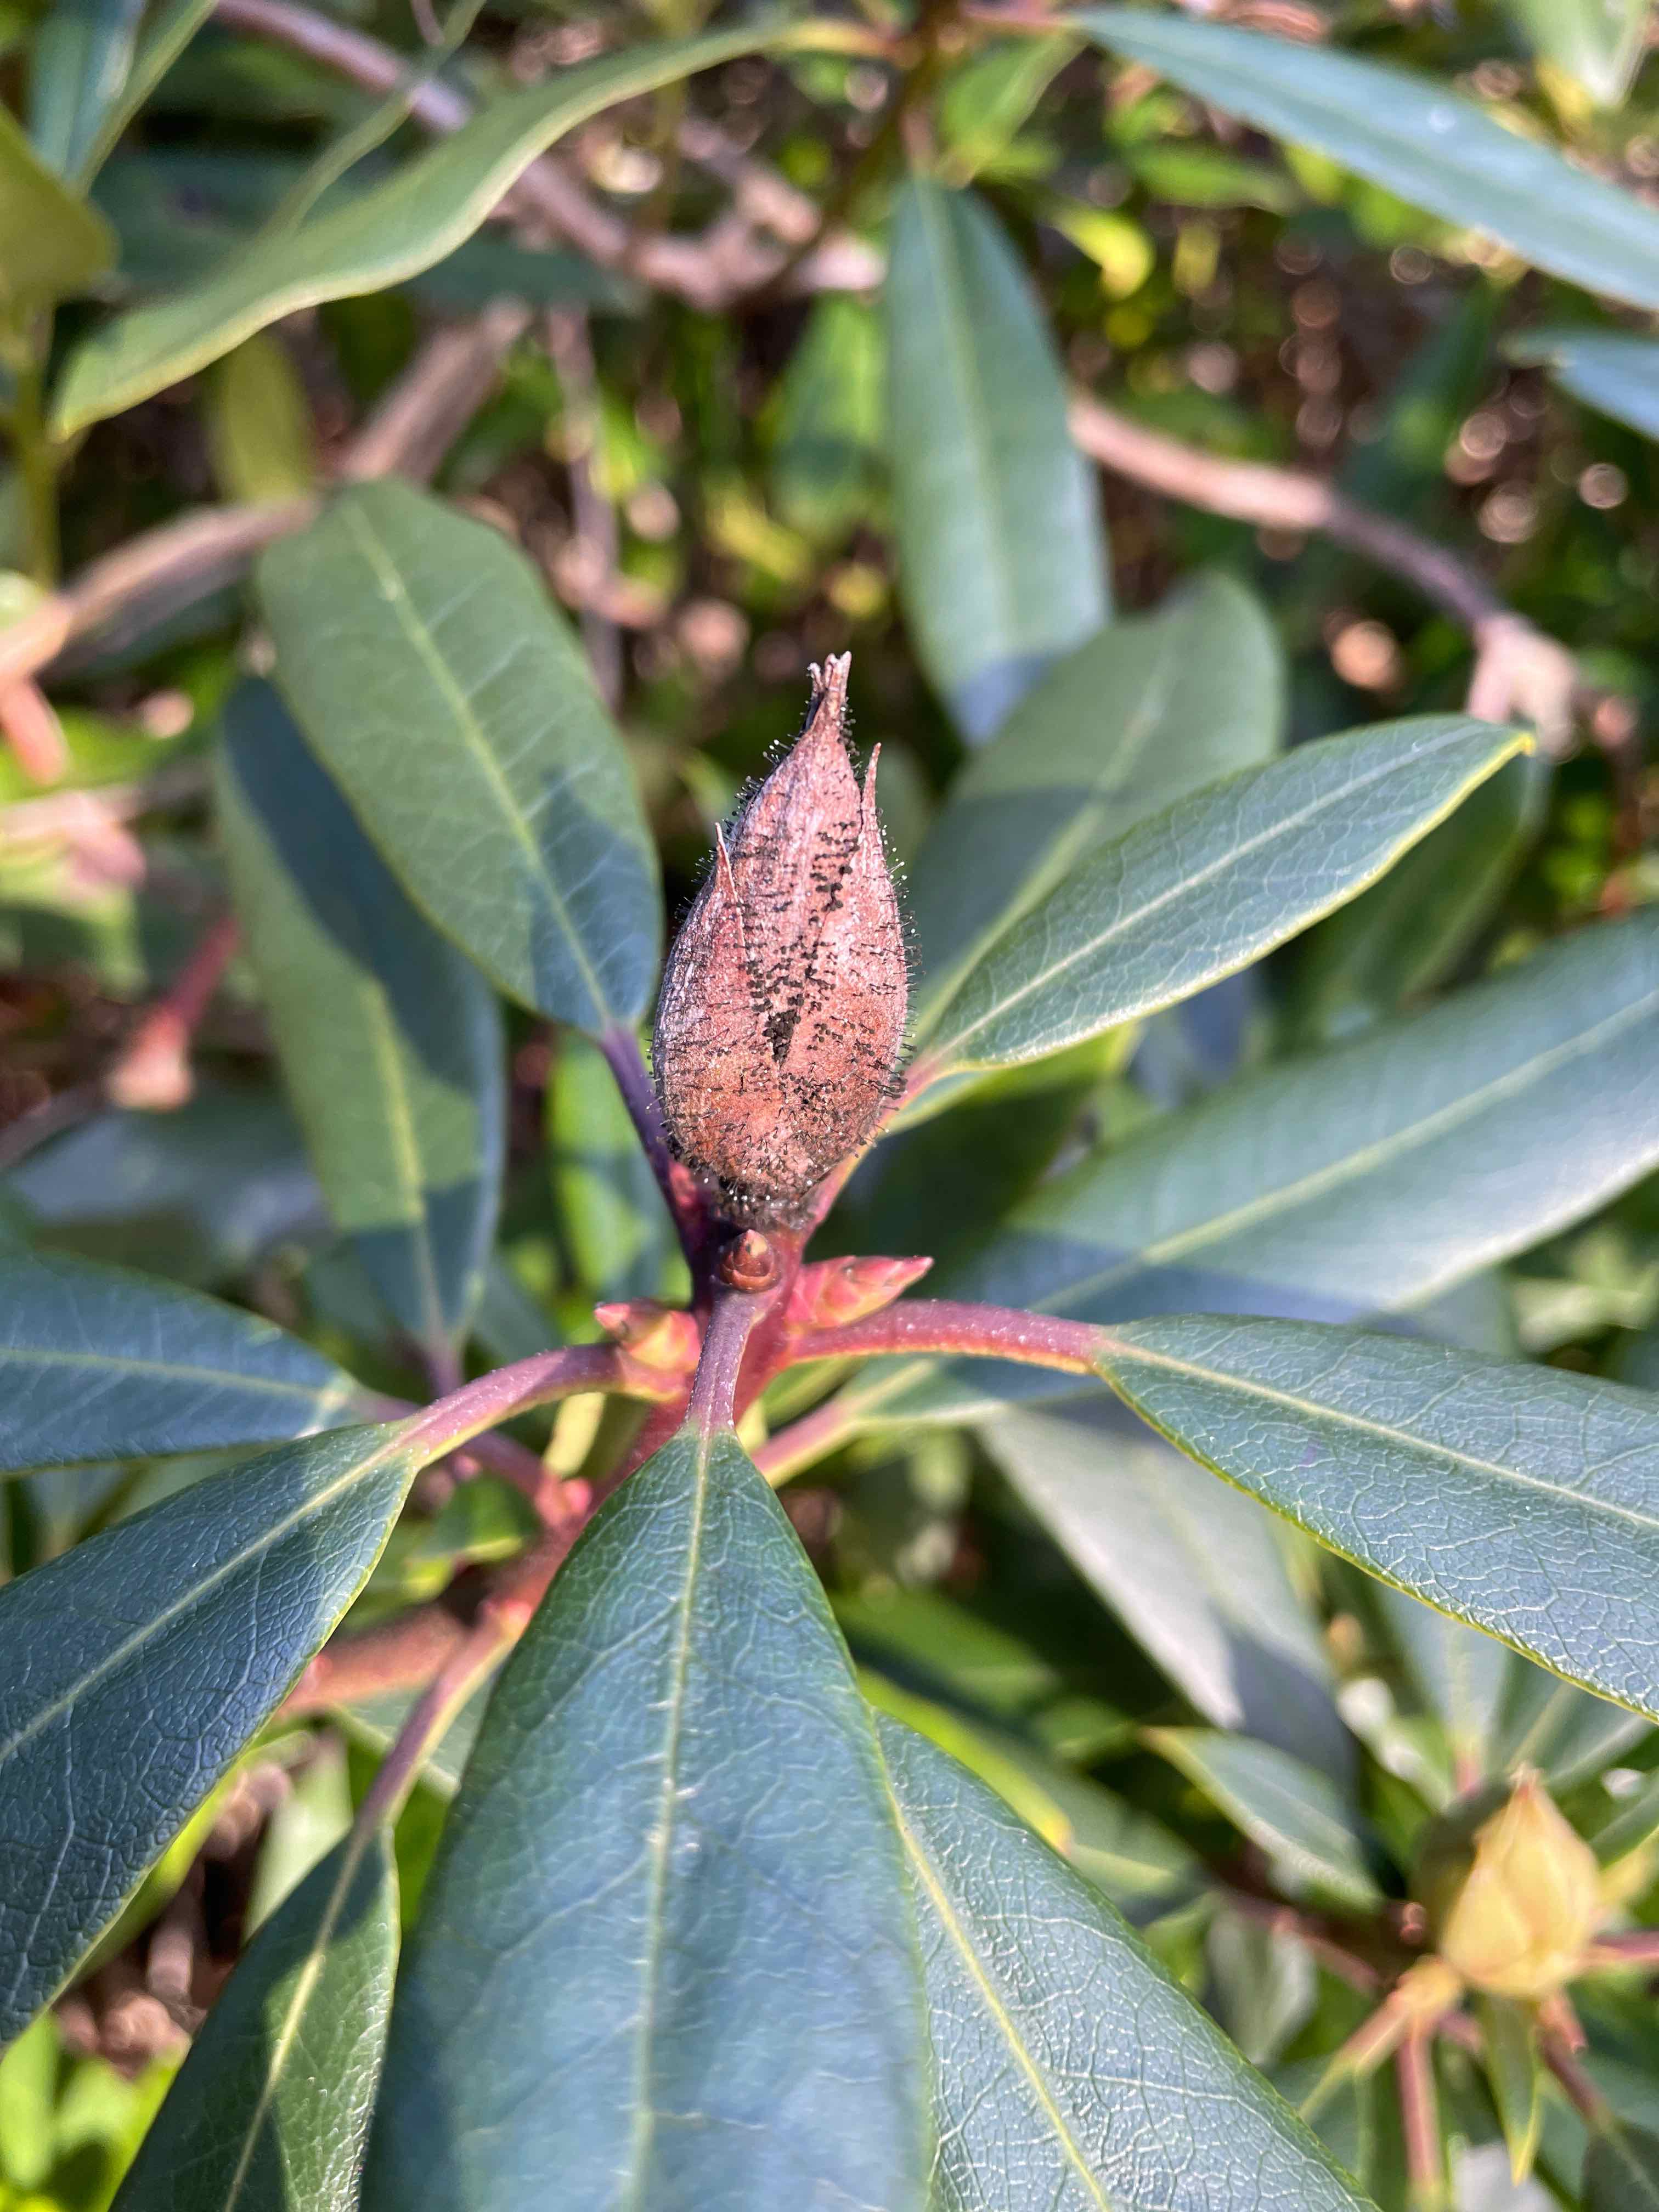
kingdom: Fungi
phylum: Ascomycota
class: Dothideomycetes
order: Pleosporales
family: Melanommataceae
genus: Seifertia
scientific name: Seifertia azaleae
